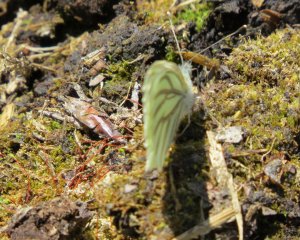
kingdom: Animalia
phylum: Arthropoda
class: Insecta
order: Lepidoptera
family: Pieridae
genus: Pieris
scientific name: Pieris oleracea
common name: Mustard White
